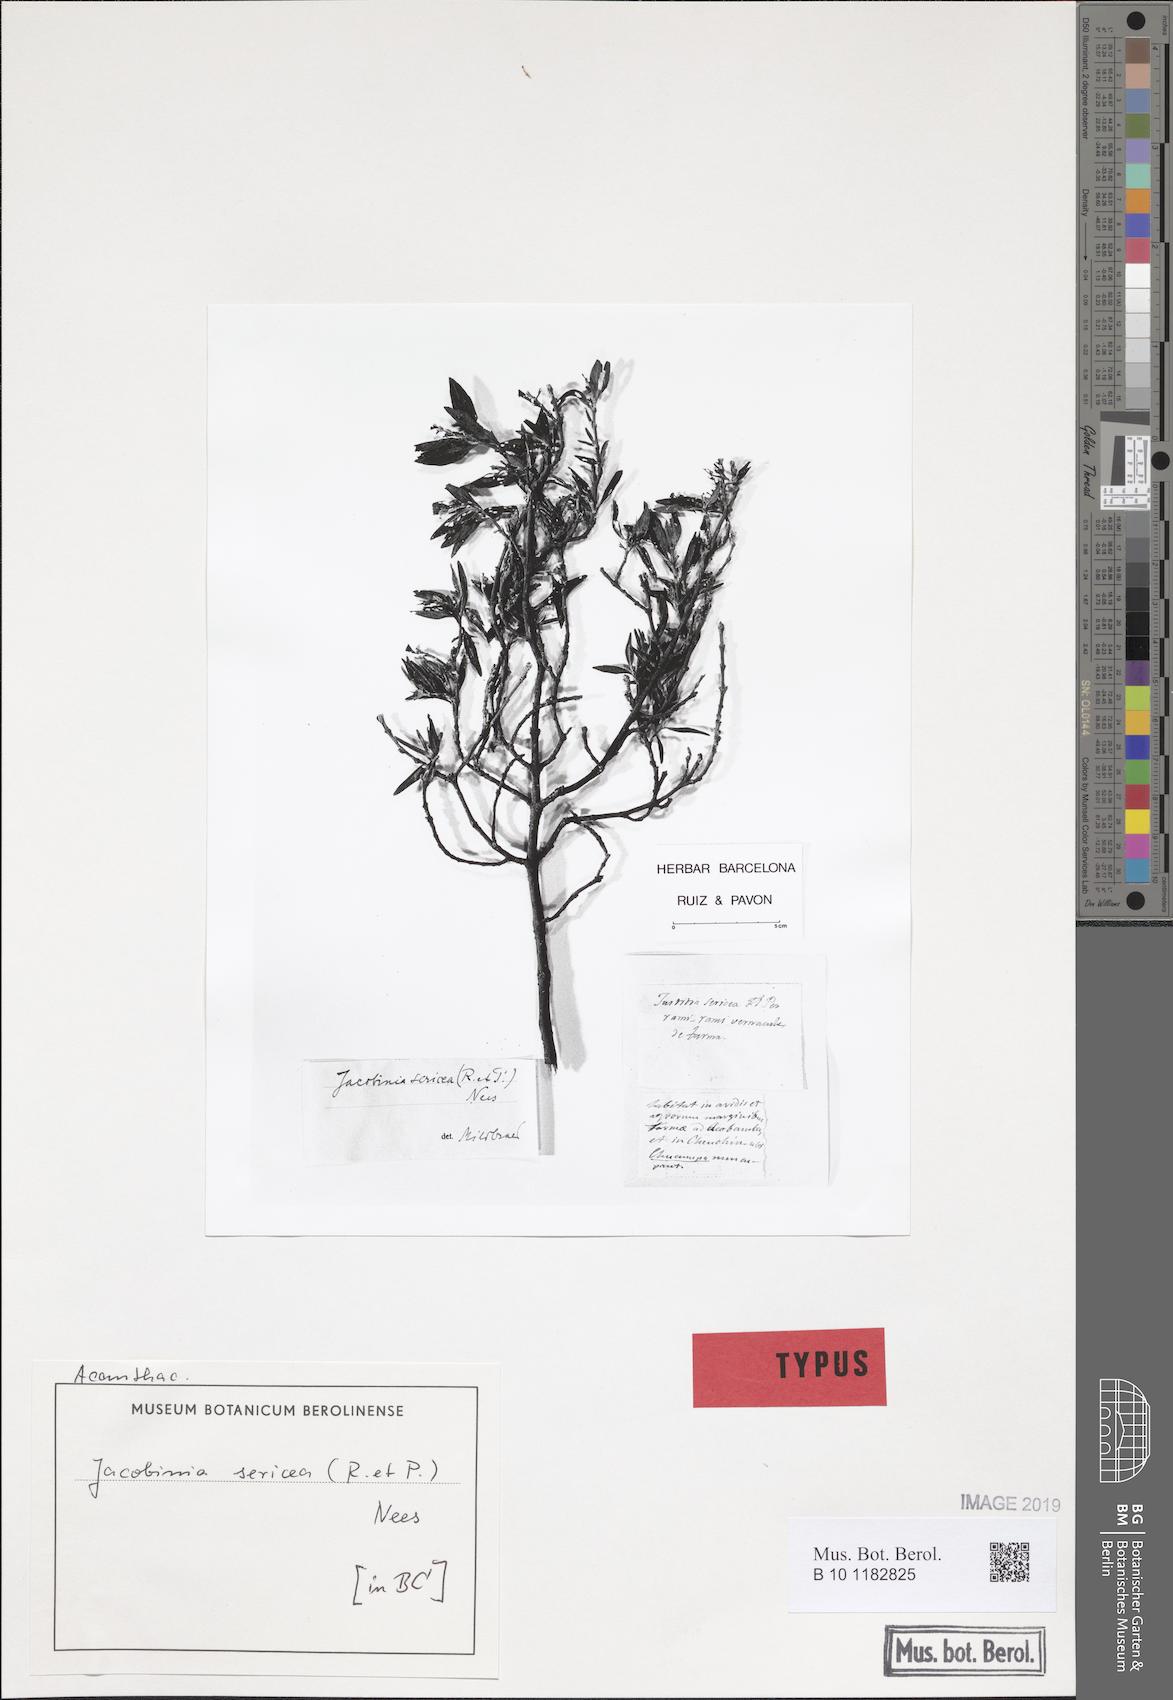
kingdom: Plantae
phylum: Tracheophyta
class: Magnoliopsida
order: Lamiales
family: Acanthaceae
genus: Justicia
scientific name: Justicia sericea
